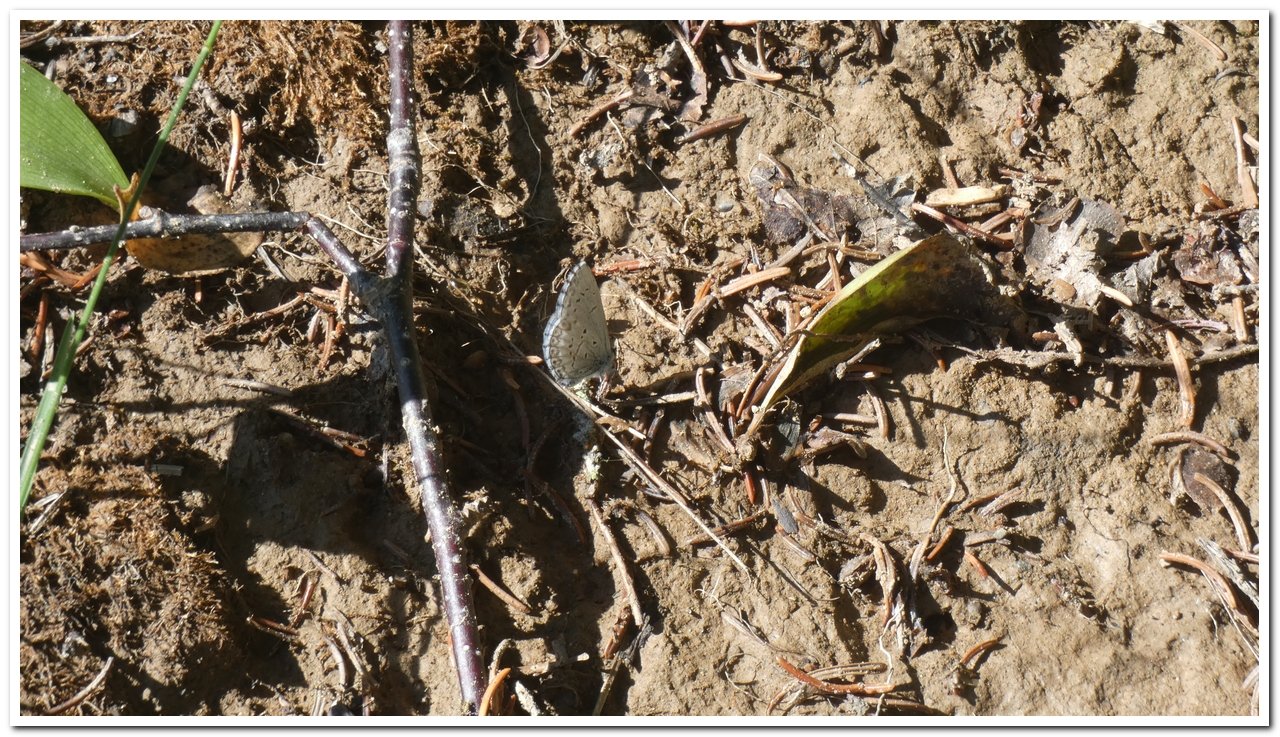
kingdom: Animalia
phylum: Arthropoda
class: Insecta
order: Lepidoptera
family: Lycaenidae
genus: Celastrina
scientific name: Celastrina lucia
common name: Northern Spring Azure
